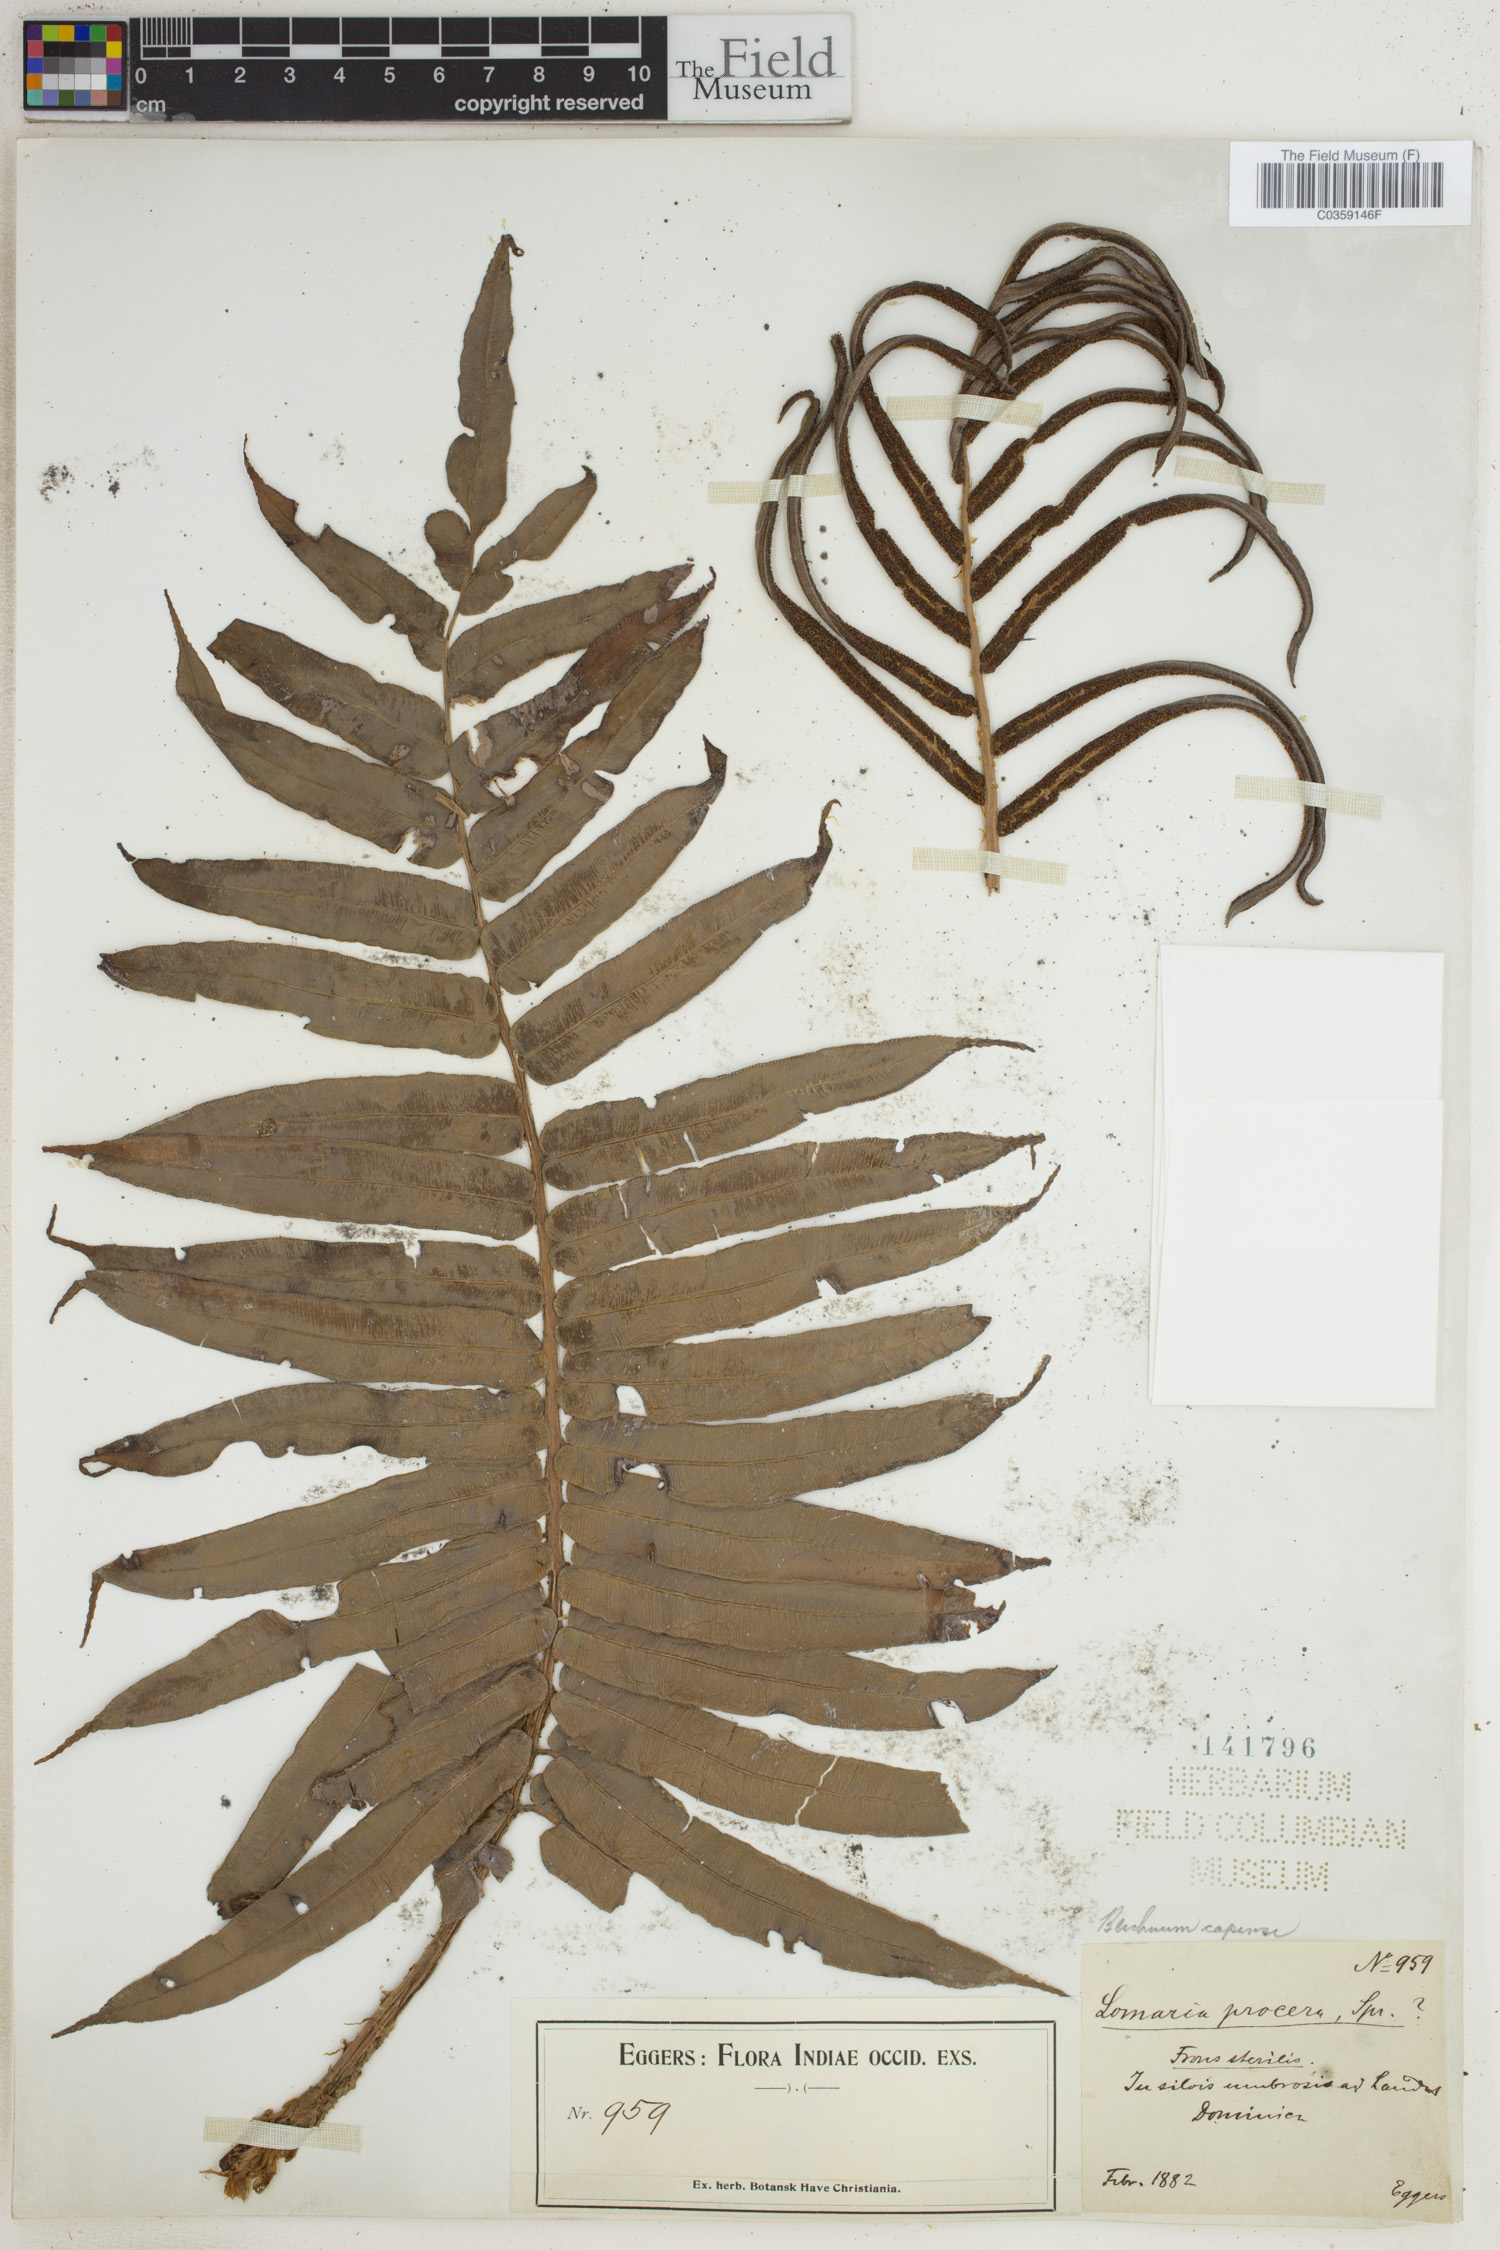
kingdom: Plantae
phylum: Tracheophyta
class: Polypodiopsida
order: Polypodiales
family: Blechnaceae
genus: Parablechnum
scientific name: Parablechnum capense
